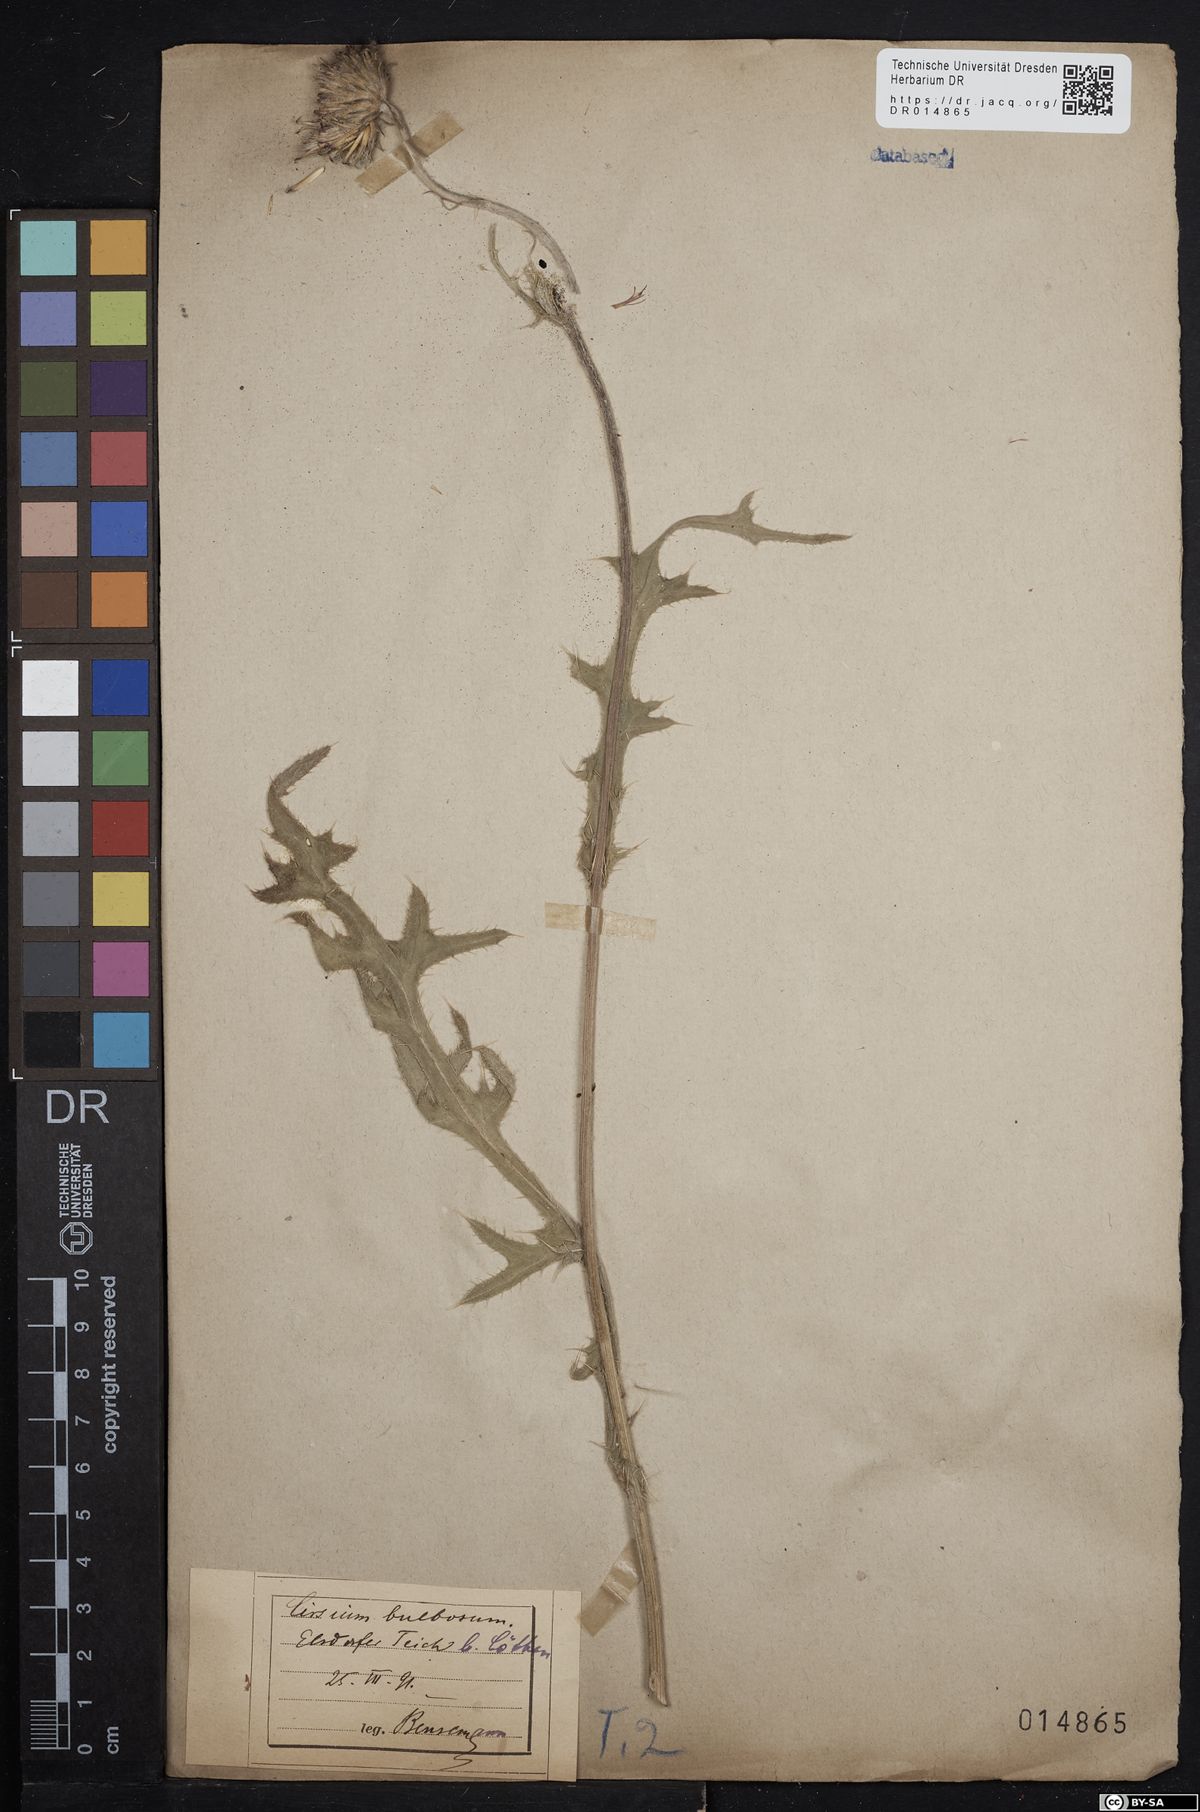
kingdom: Plantae
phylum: Tracheophyta
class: Magnoliopsida
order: Asterales
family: Asteraceae
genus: Cirsium
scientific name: Cirsium tuberosum
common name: Tuberous thistle
